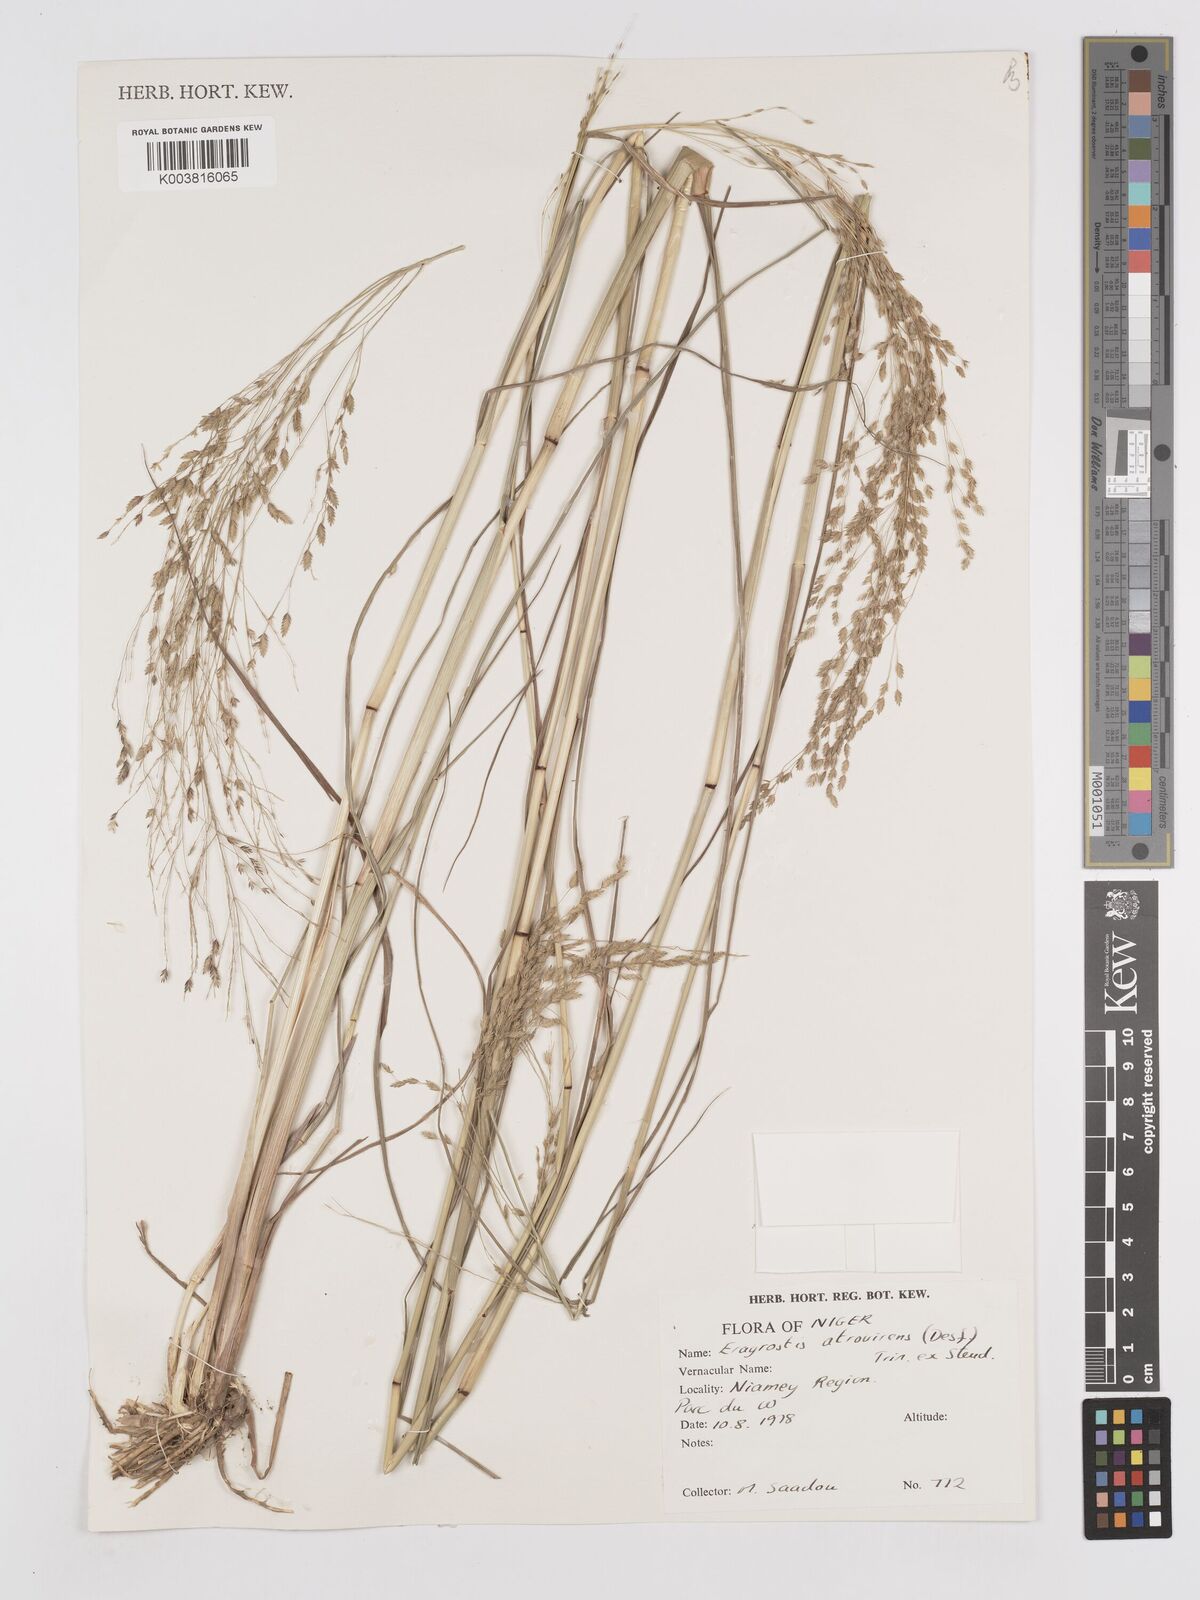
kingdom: Plantae
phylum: Tracheophyta
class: Liliopsida
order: Poales
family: Poaceae
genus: Eragrostis
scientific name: Eragrostis atrovirens
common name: Thalia lovegrass
